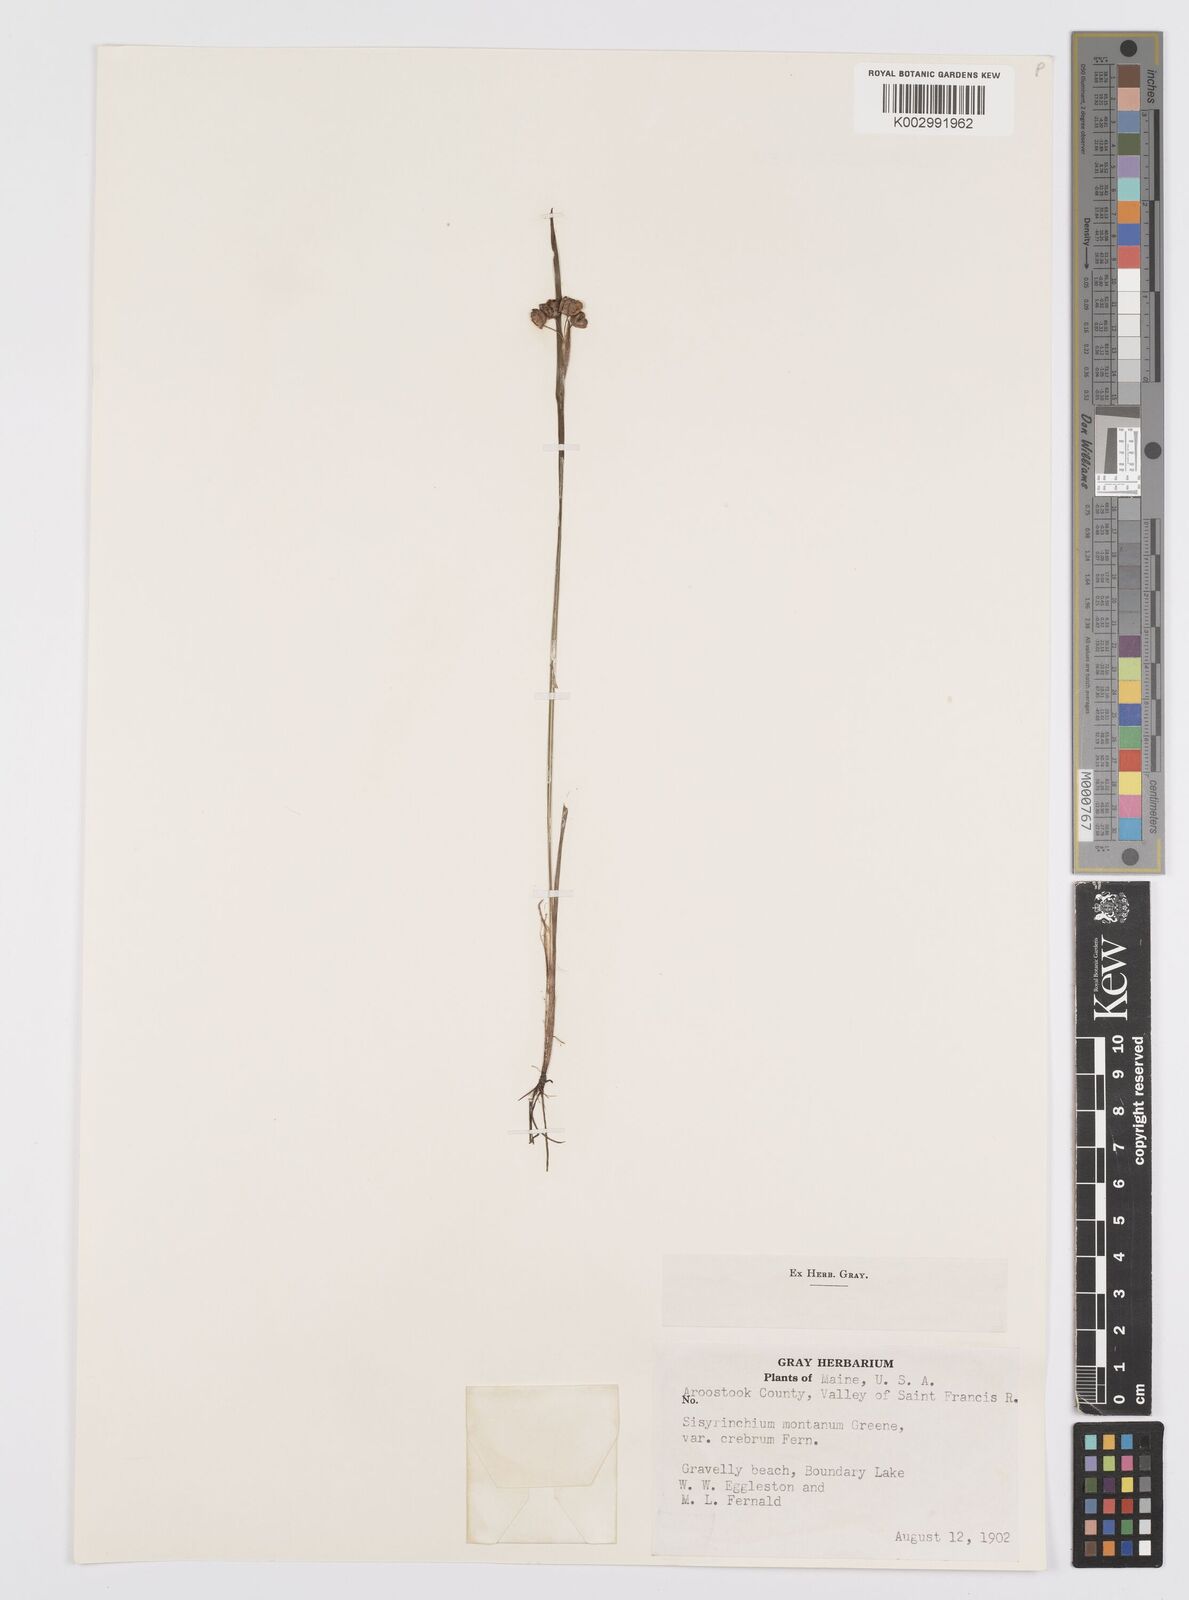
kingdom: Plantae
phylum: Tracheophyta
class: Liliopsida
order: Asparagales
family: Iridaceae
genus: Sisyrinchium
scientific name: Sisyrinchium montanum
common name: American blue-eyed-grass
